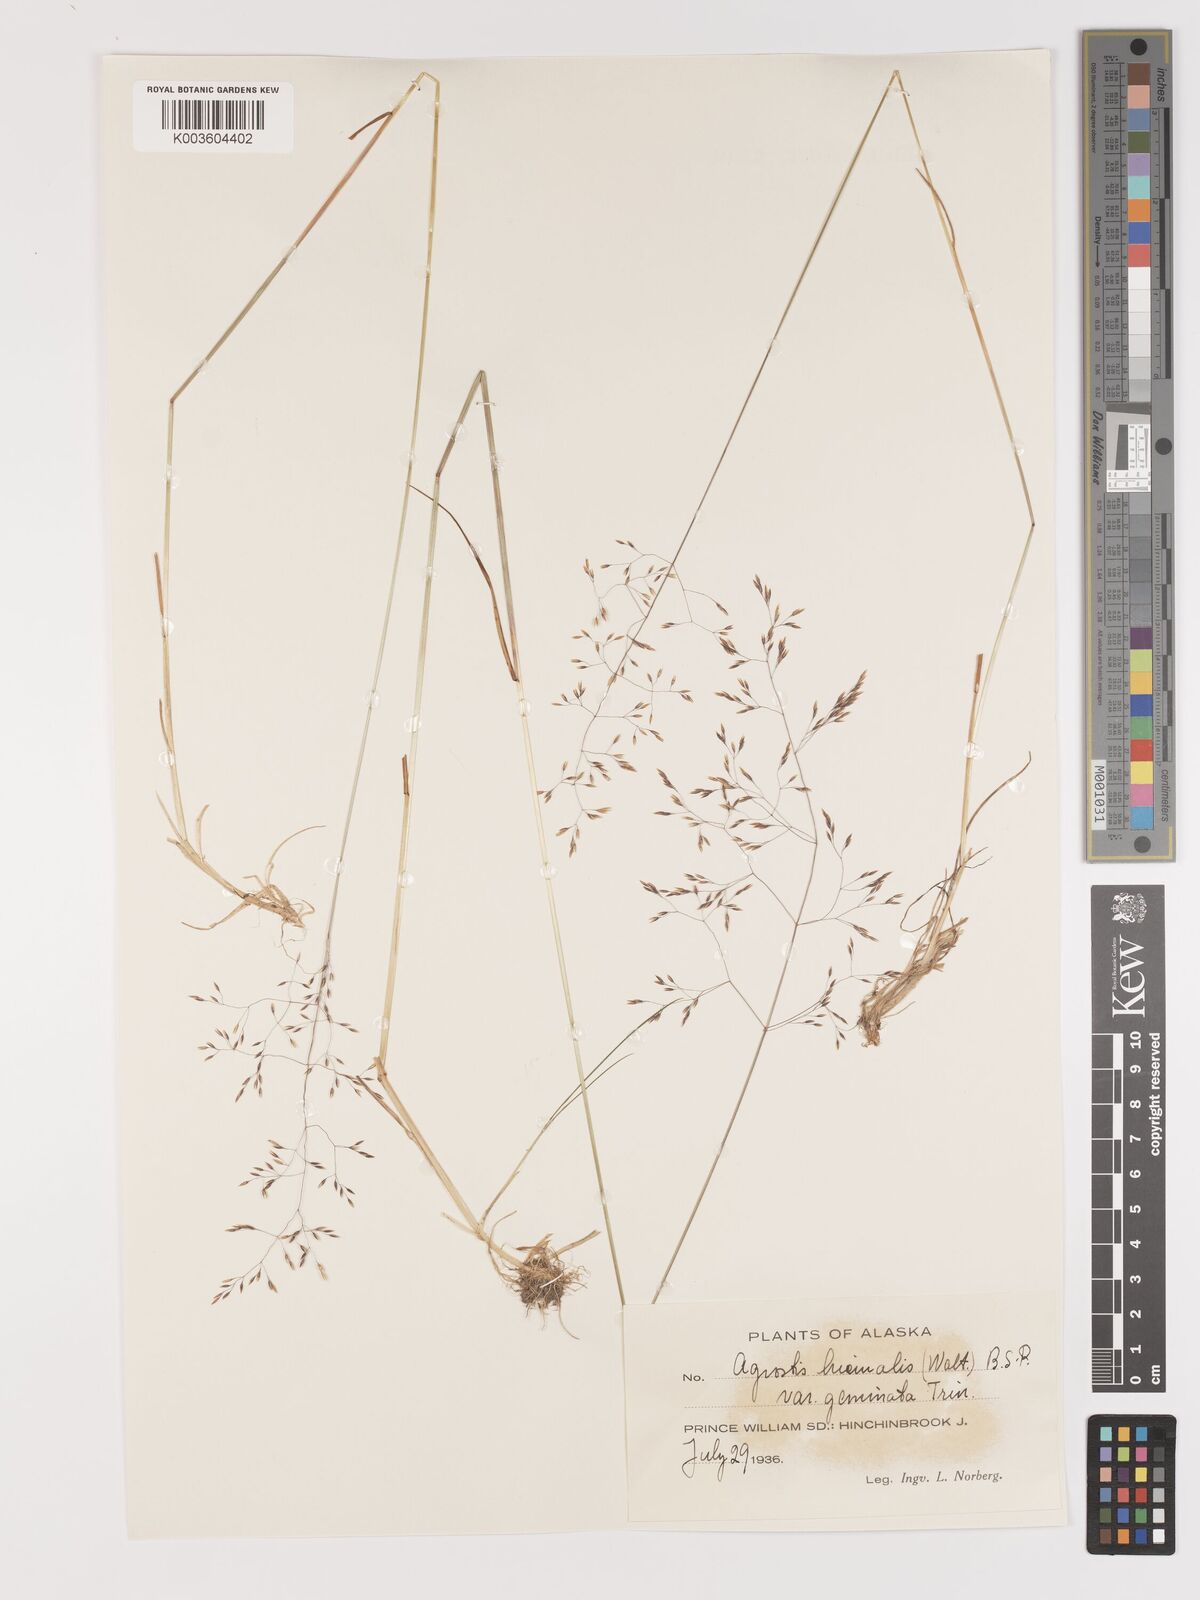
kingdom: Plantae
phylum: Tracheophyta
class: Liliopsida
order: Poales
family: Poaceae
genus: Agrostis
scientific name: Agrostis hyemalis
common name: Small bent
